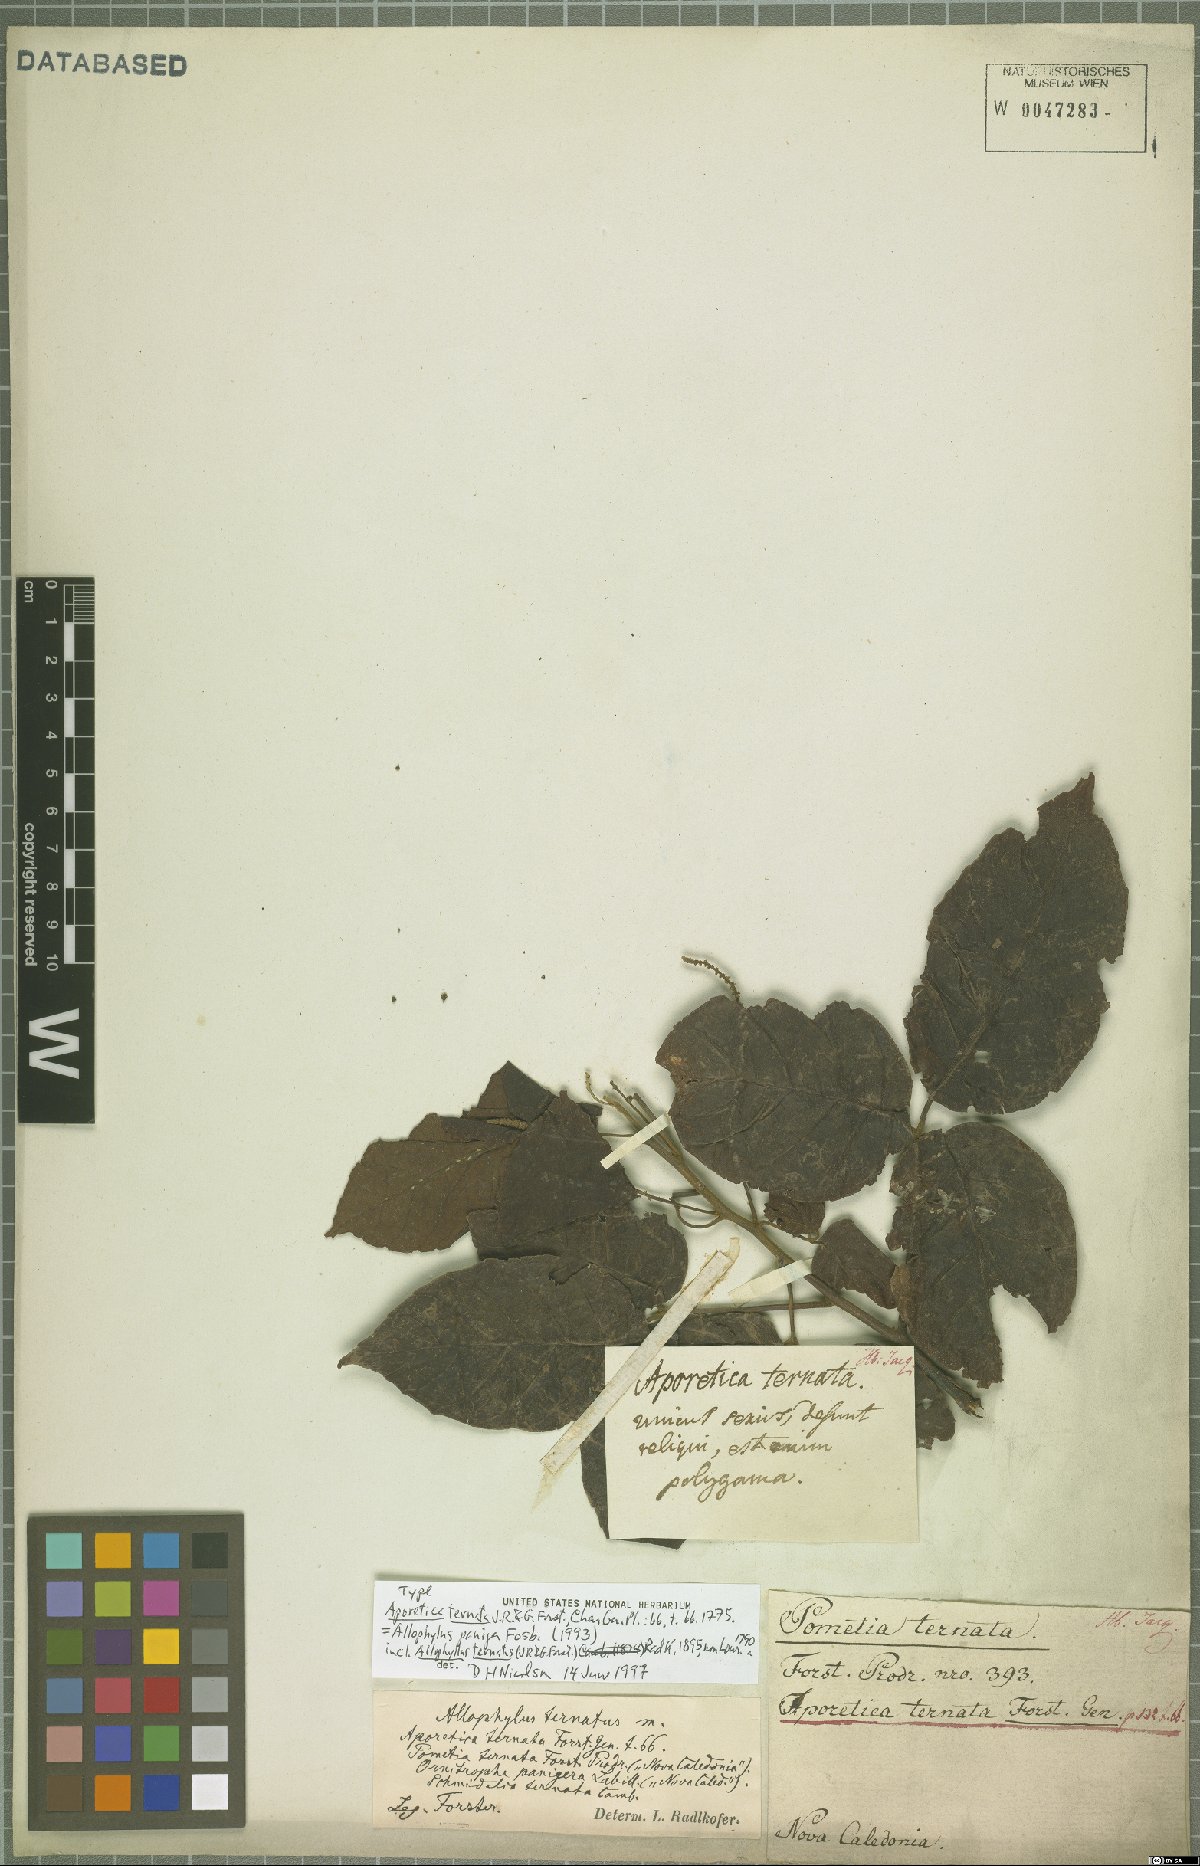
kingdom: Plantae
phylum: Tracheophyta
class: Magnoliopsida
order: Sapindales
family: Sapindaceae
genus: Allophylus
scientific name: Allophylus amboinensis
